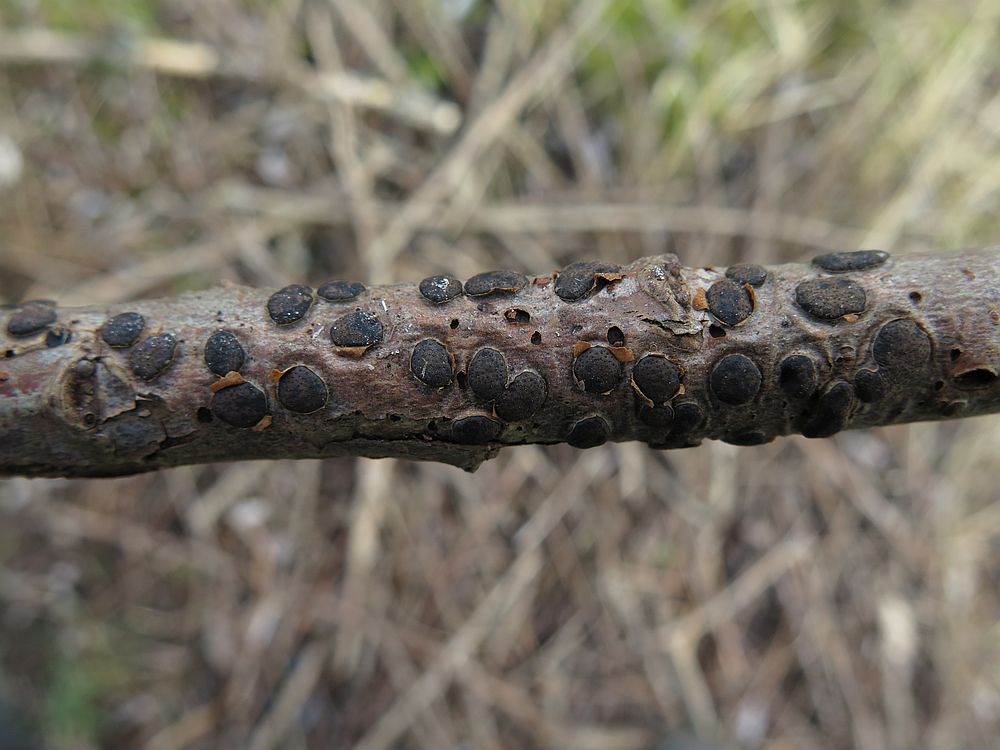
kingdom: Fungi
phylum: Ascomycota
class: Sordariomycetes
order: Xylariales
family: Diatrypaceae
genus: Diatrype
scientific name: Diatrype bullata
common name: pile-kulskorpe
